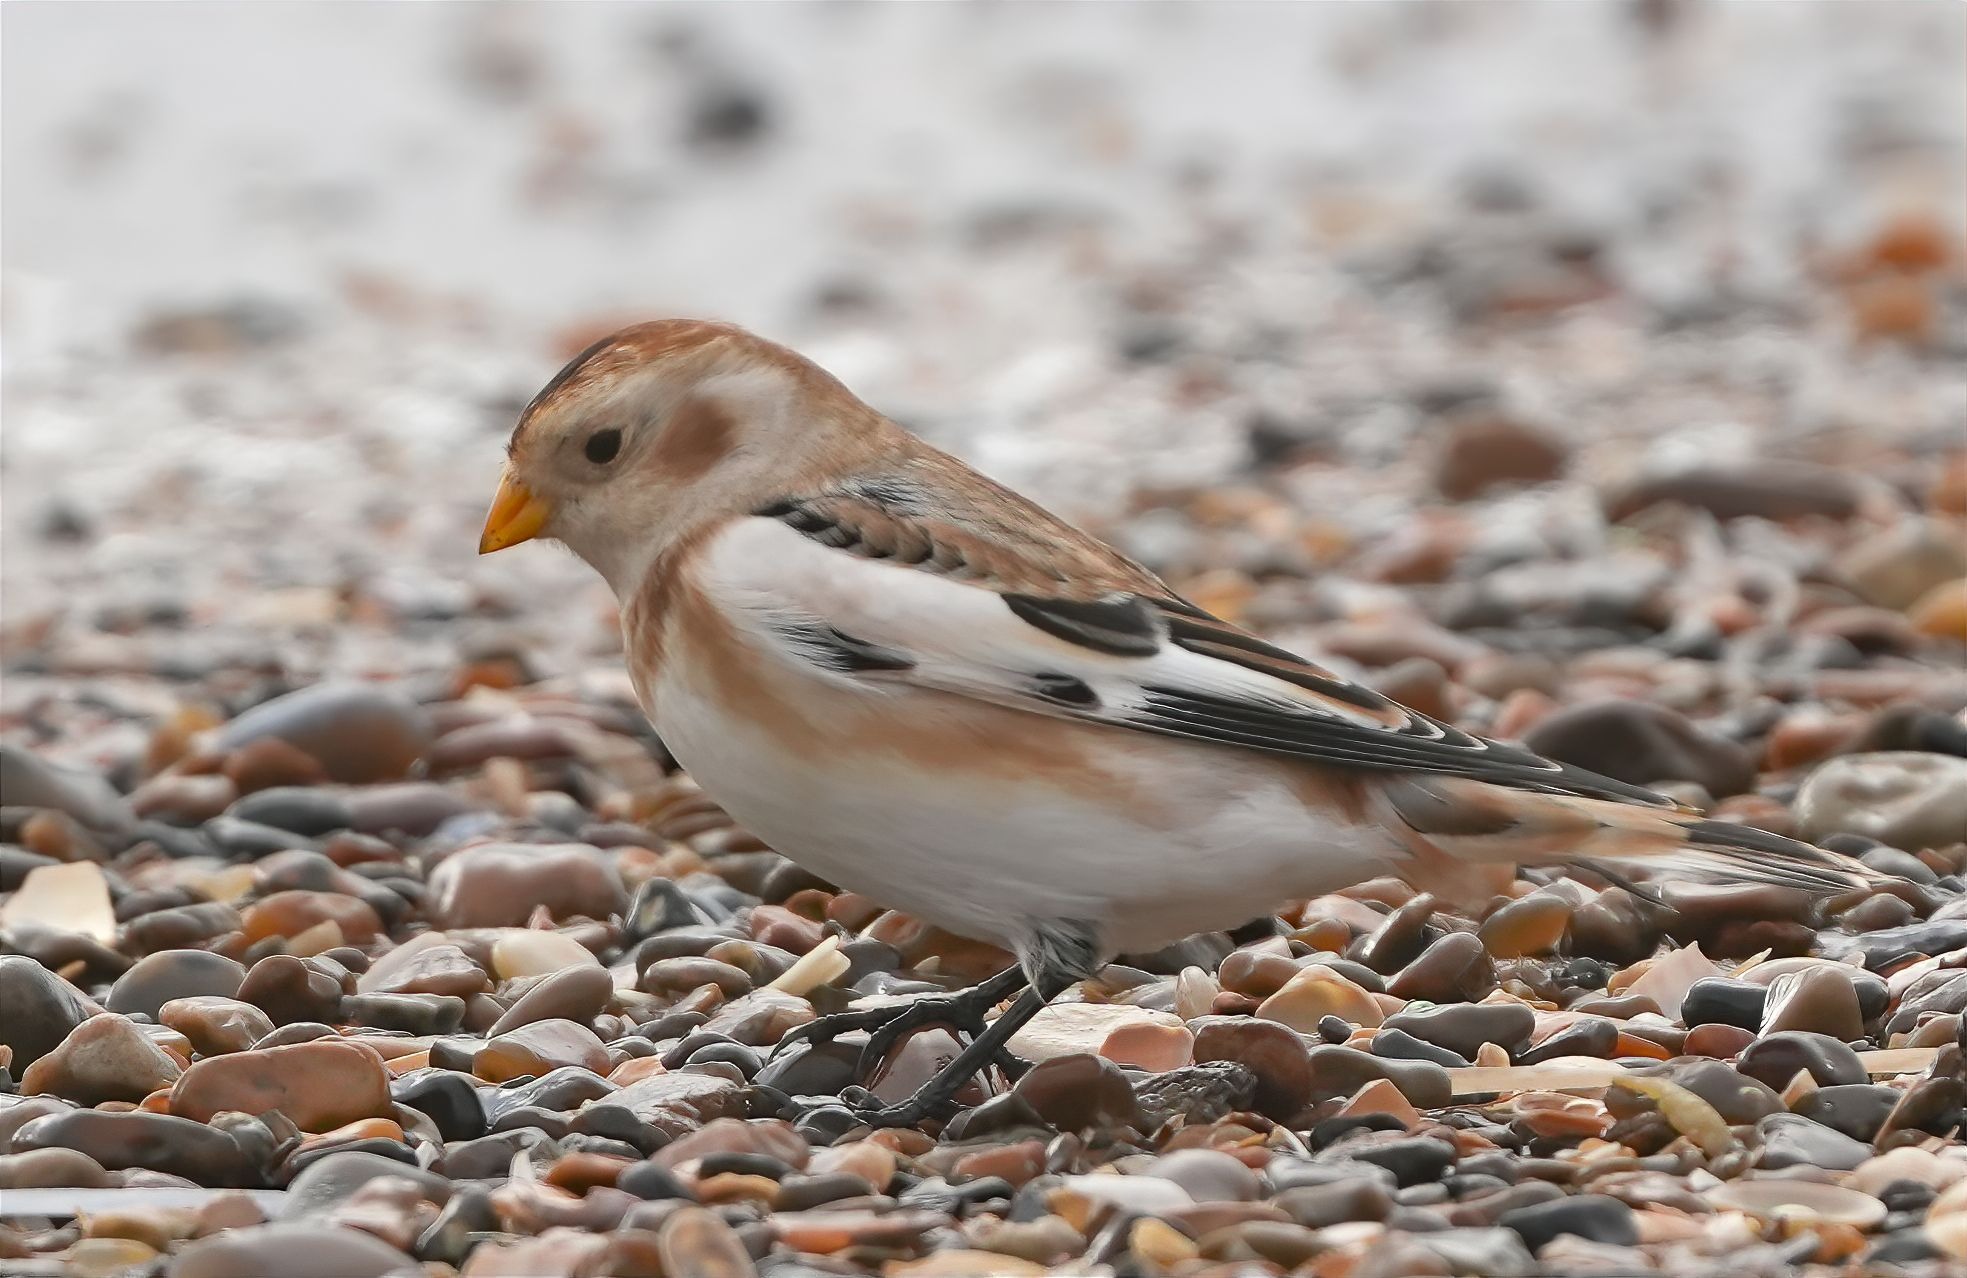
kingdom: Animalia
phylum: Chordata
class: Aves
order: Passeriformes
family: Calcariidae
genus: Plectrophenax
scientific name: Plectrophenax nivalis
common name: Snespurv
